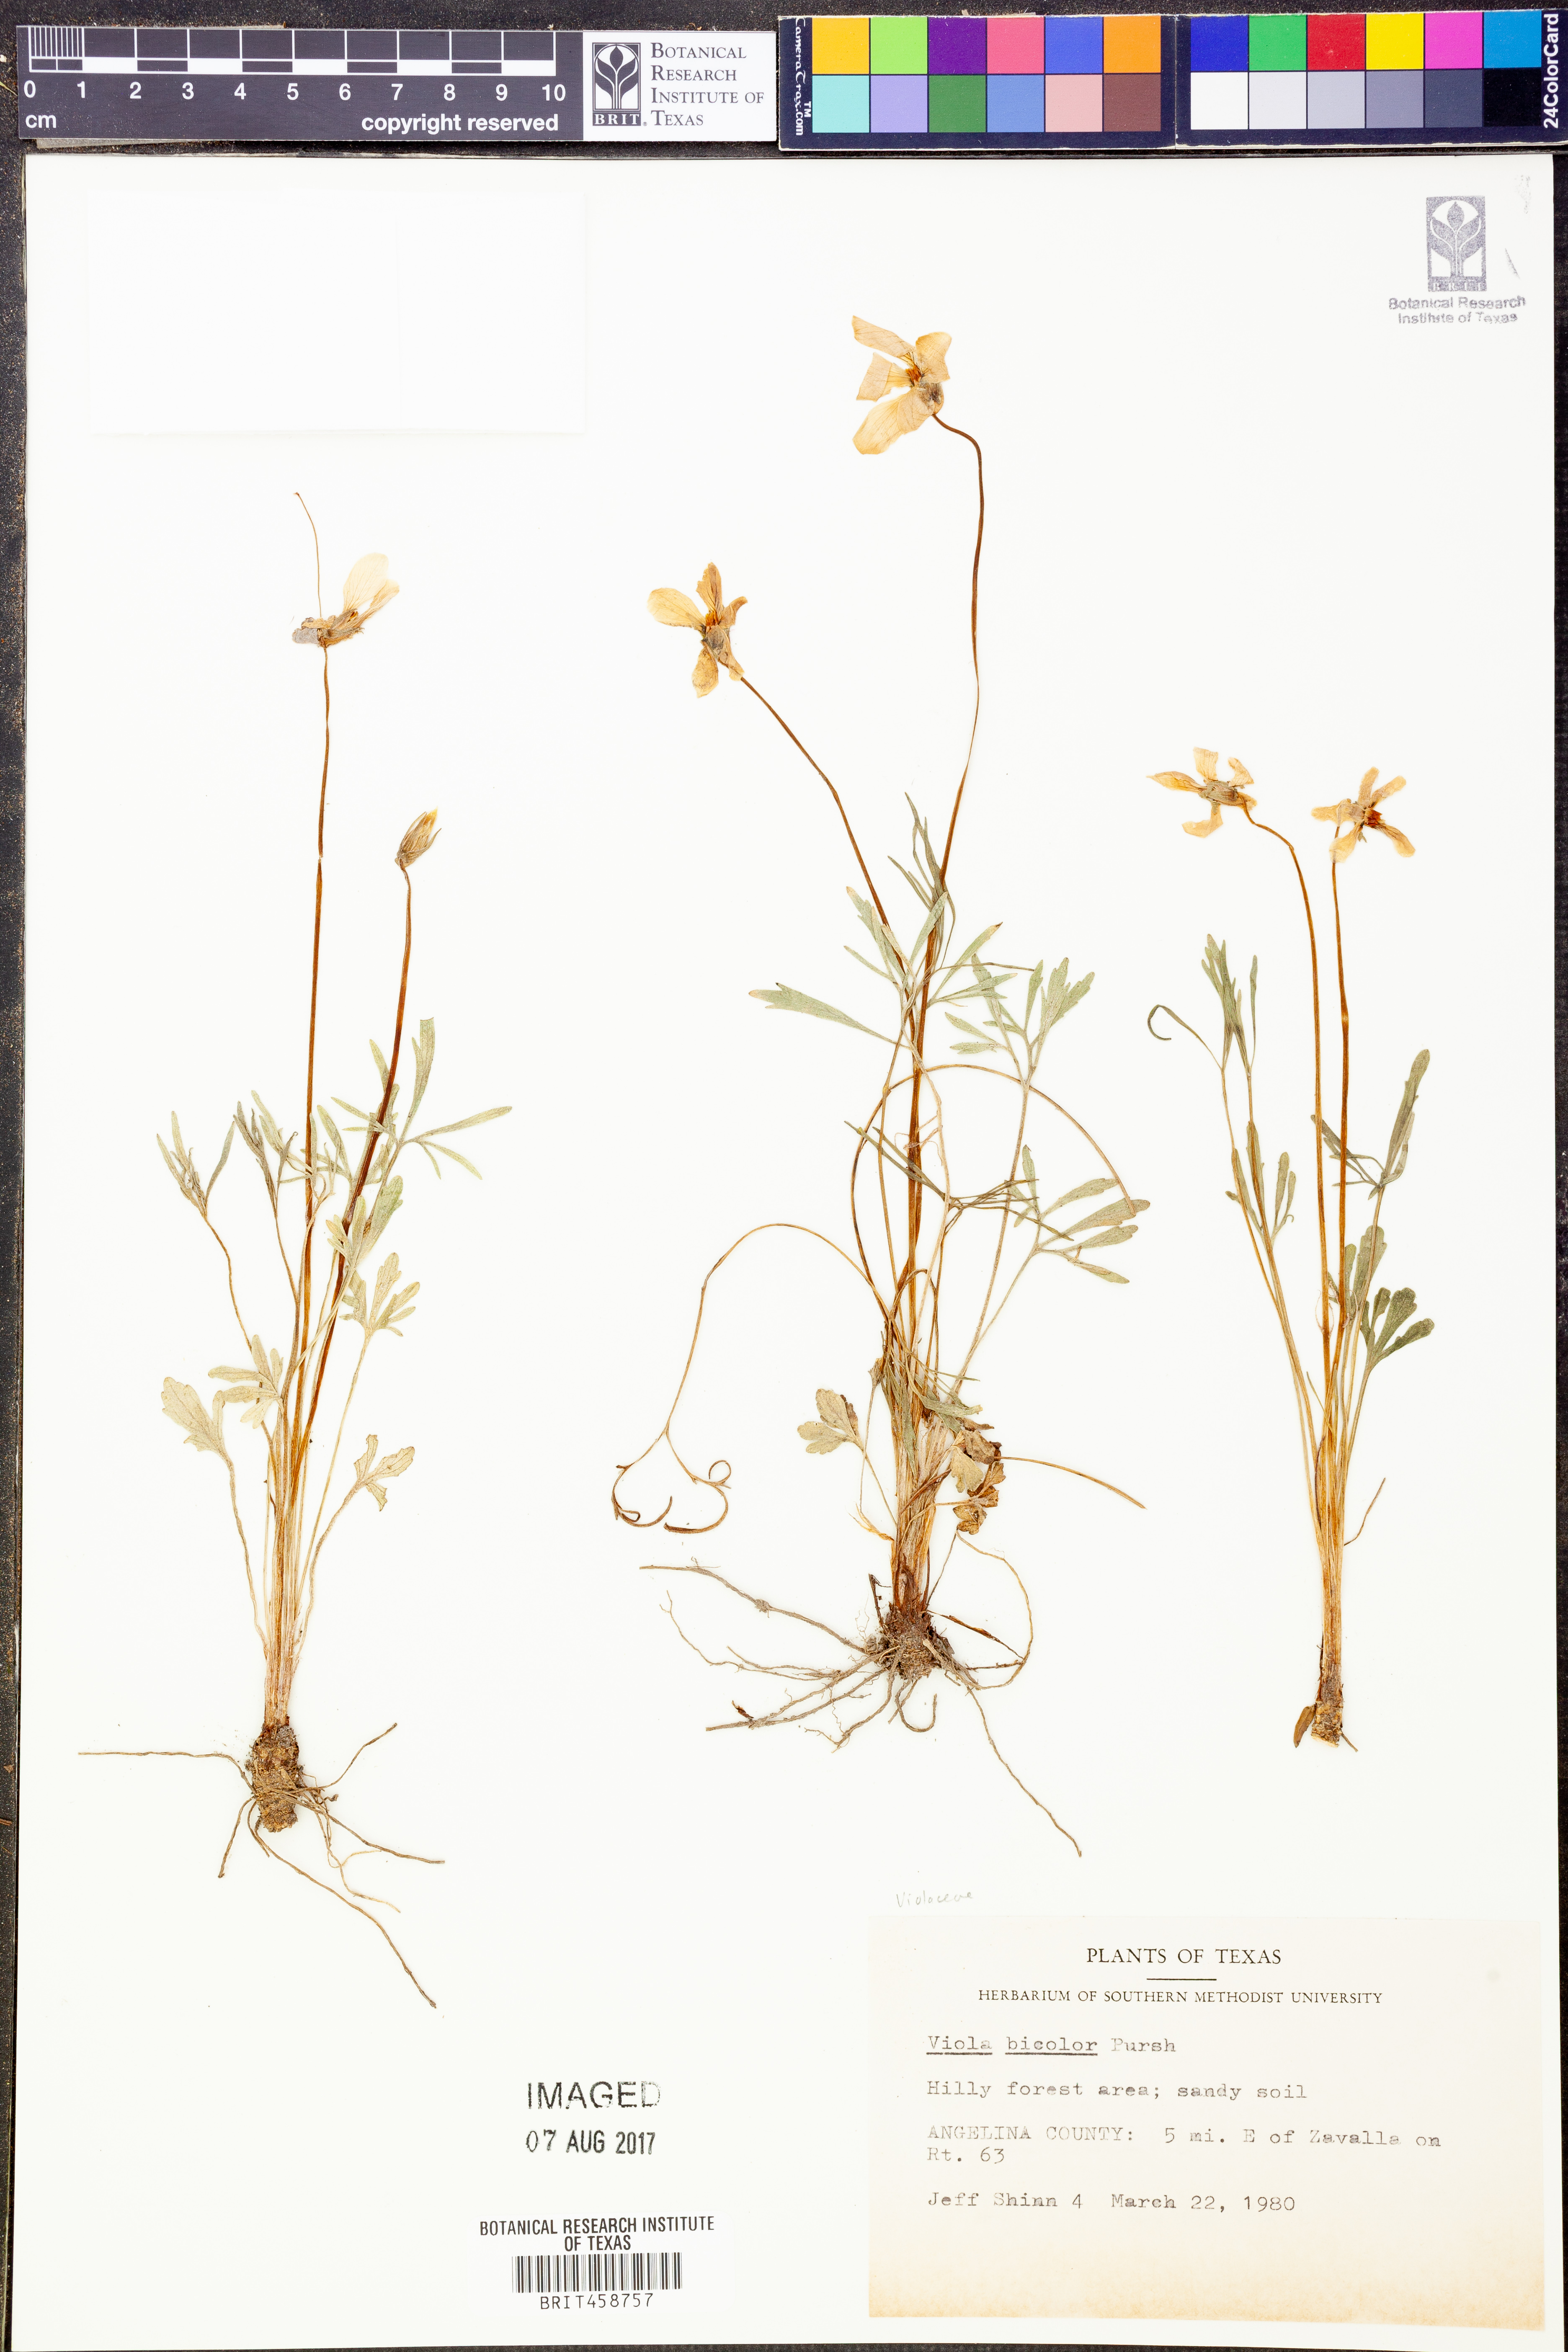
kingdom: Plantae
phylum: Tracheophyta
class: Magnoliopsida
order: Malpighiales
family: Violaceae
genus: Viola
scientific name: Viola rafinesquei
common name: American field pansy
